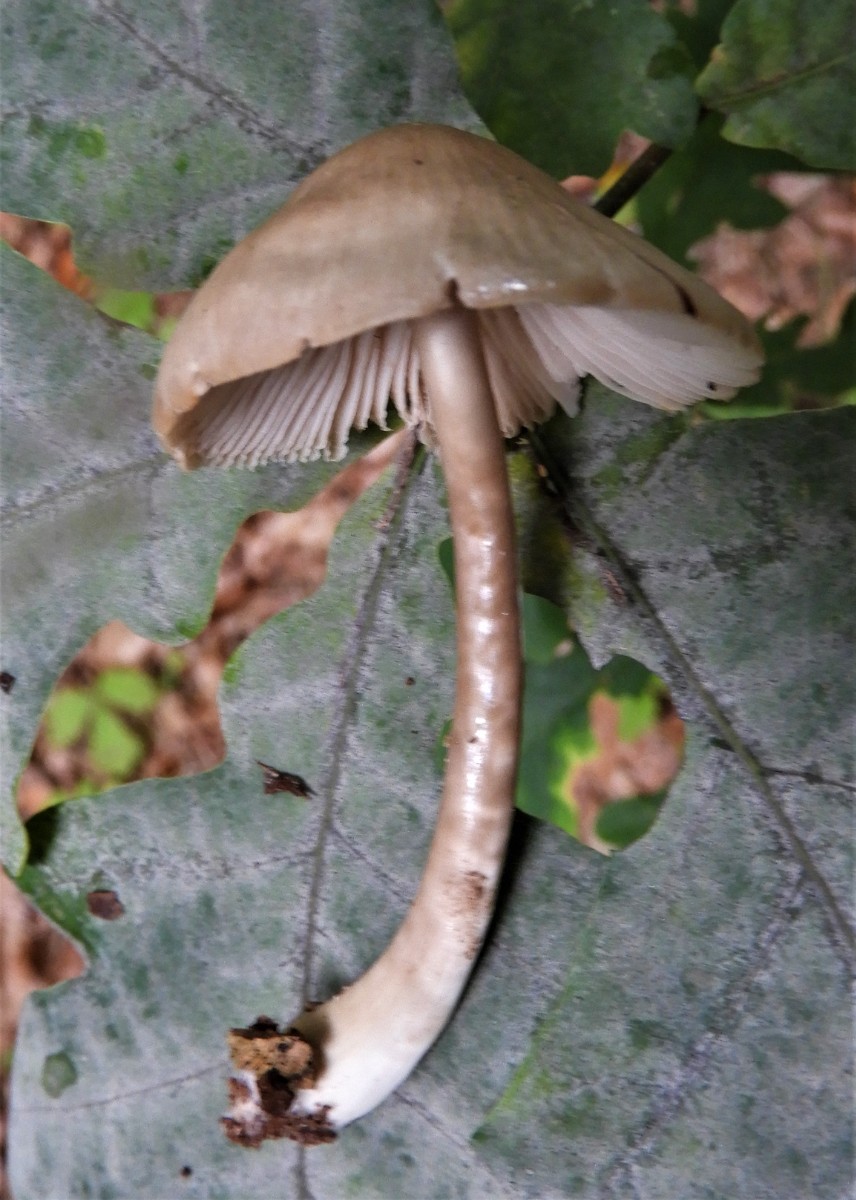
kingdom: Fungi
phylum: Basidiomycota
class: Agaricomycetes
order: Agaricales
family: Mycenaceae
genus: Mycena
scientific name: Mycena galericulata
